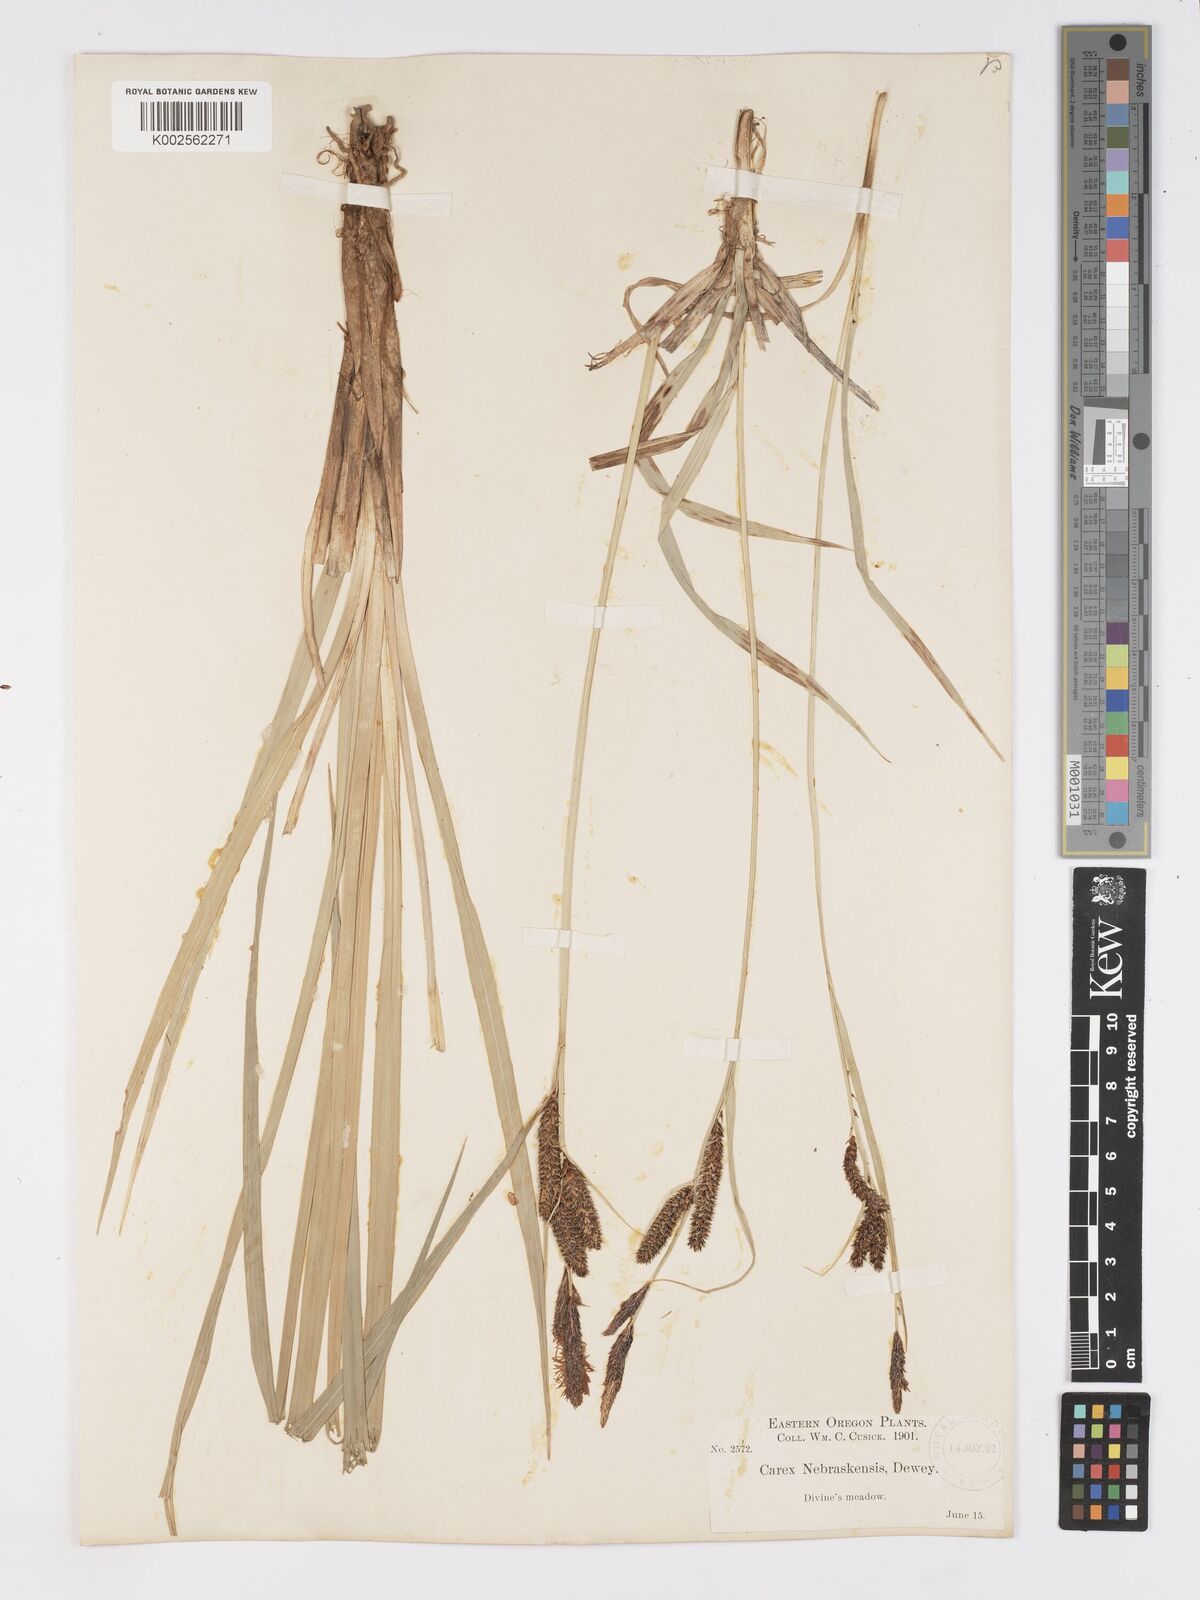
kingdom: Plantae
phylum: Tracheophyta
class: Liliopsida
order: Poales
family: Cyperaceae
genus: Carex
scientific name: Carex nebrascensis
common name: Nebraska sedge
